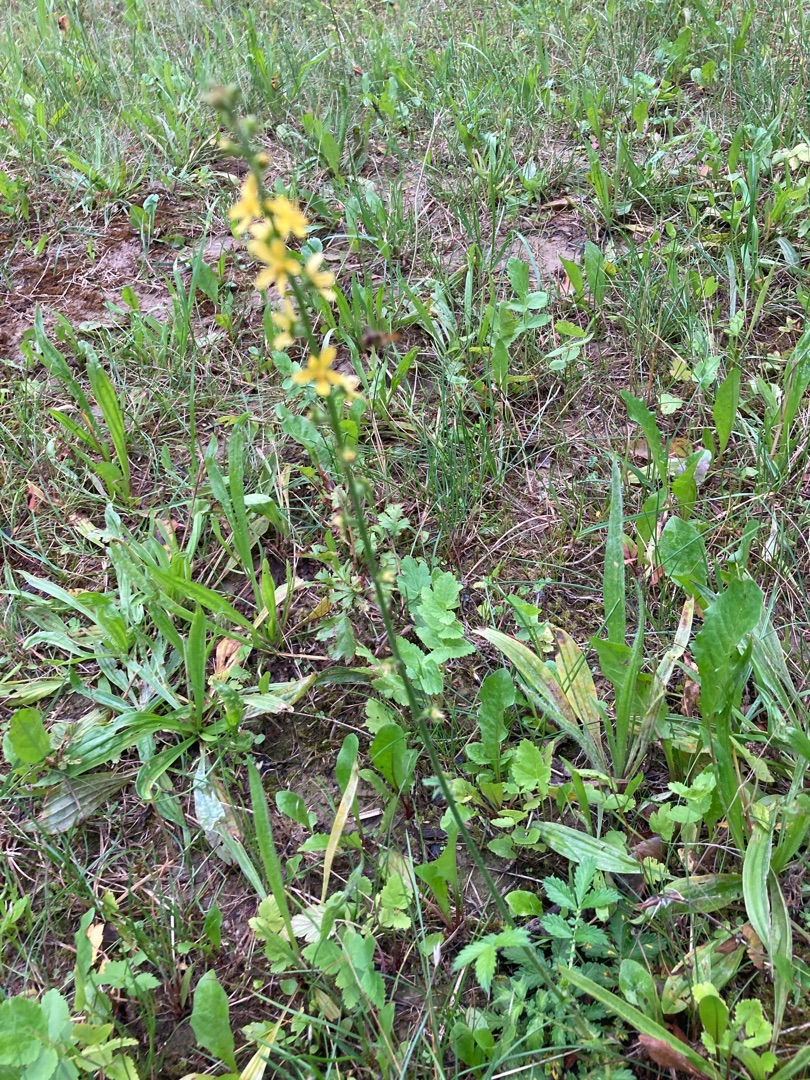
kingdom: Plantae
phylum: Tracheophyta
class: Magnoliopsida
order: Rosales
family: Rosaceae
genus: Agrimonia
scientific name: Agrimonia
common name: Agermåneslægten
